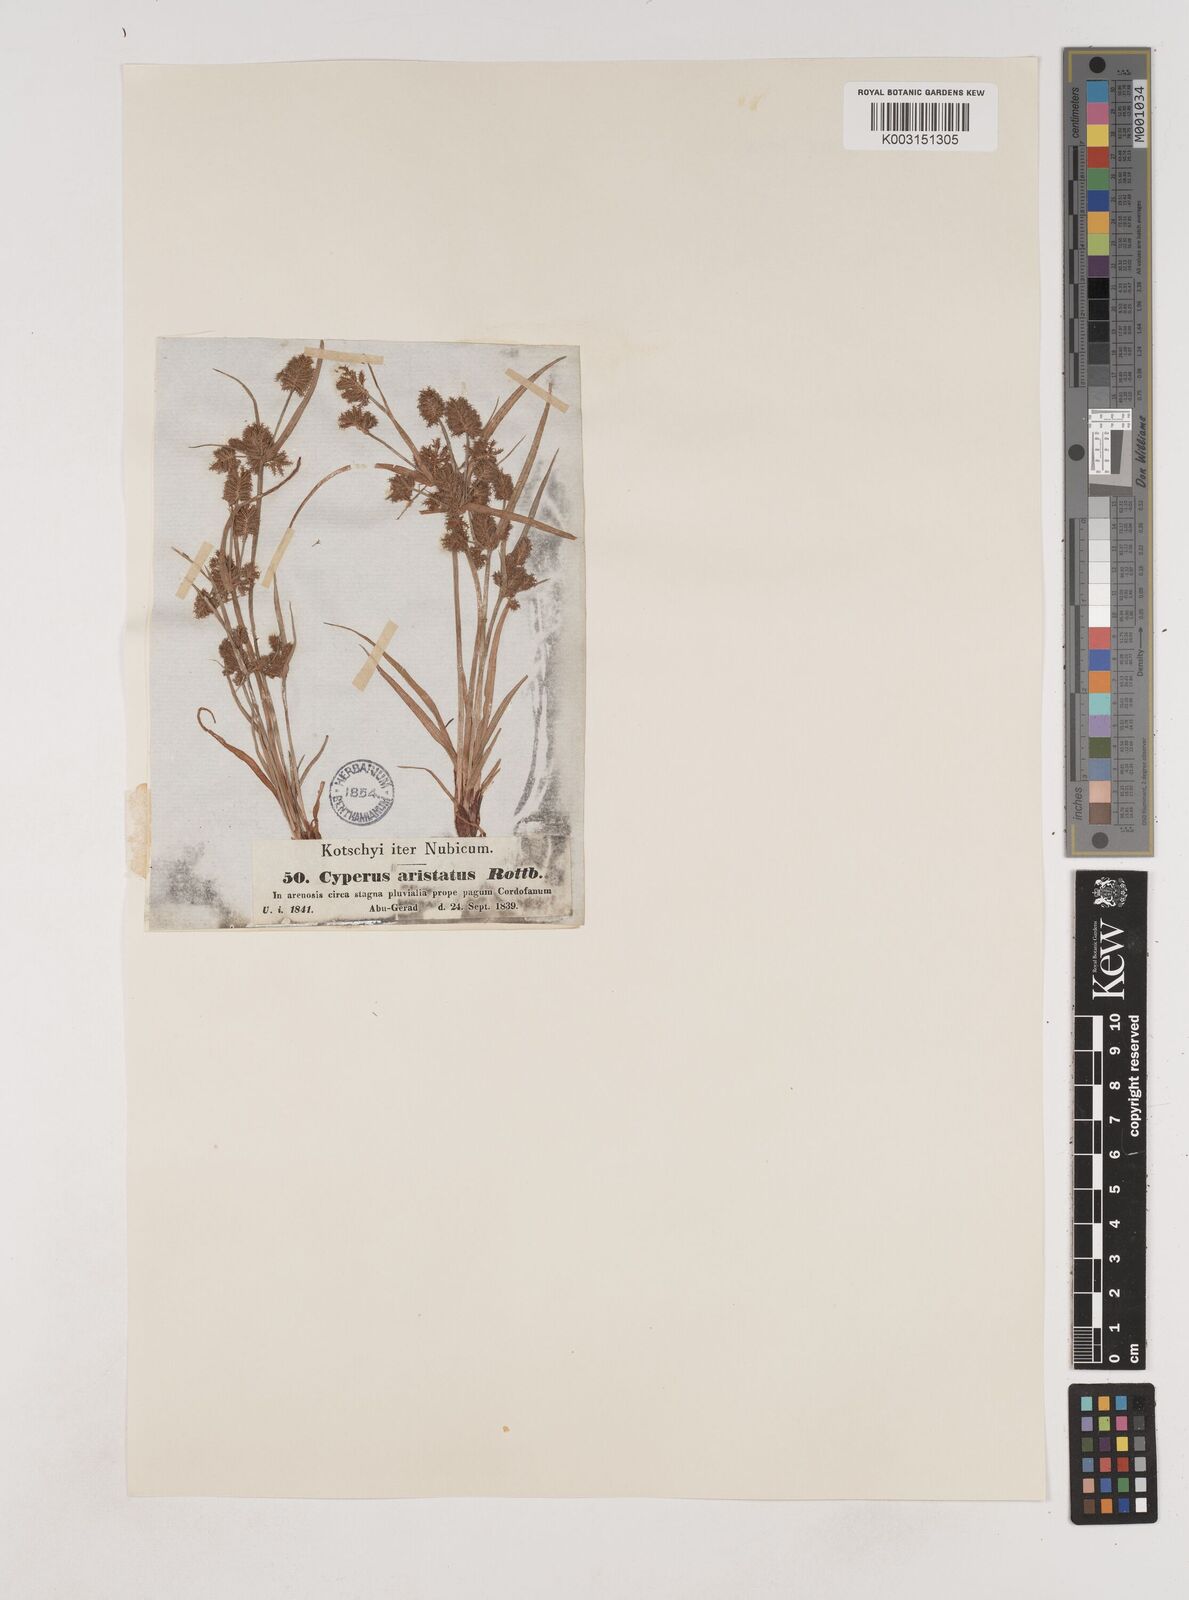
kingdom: Plantae
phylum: Tracheophyta
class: Liliopsida
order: Poales
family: Cyperaceae
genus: Cyperus
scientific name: Cyperus squarrosus
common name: Awned cyperus
